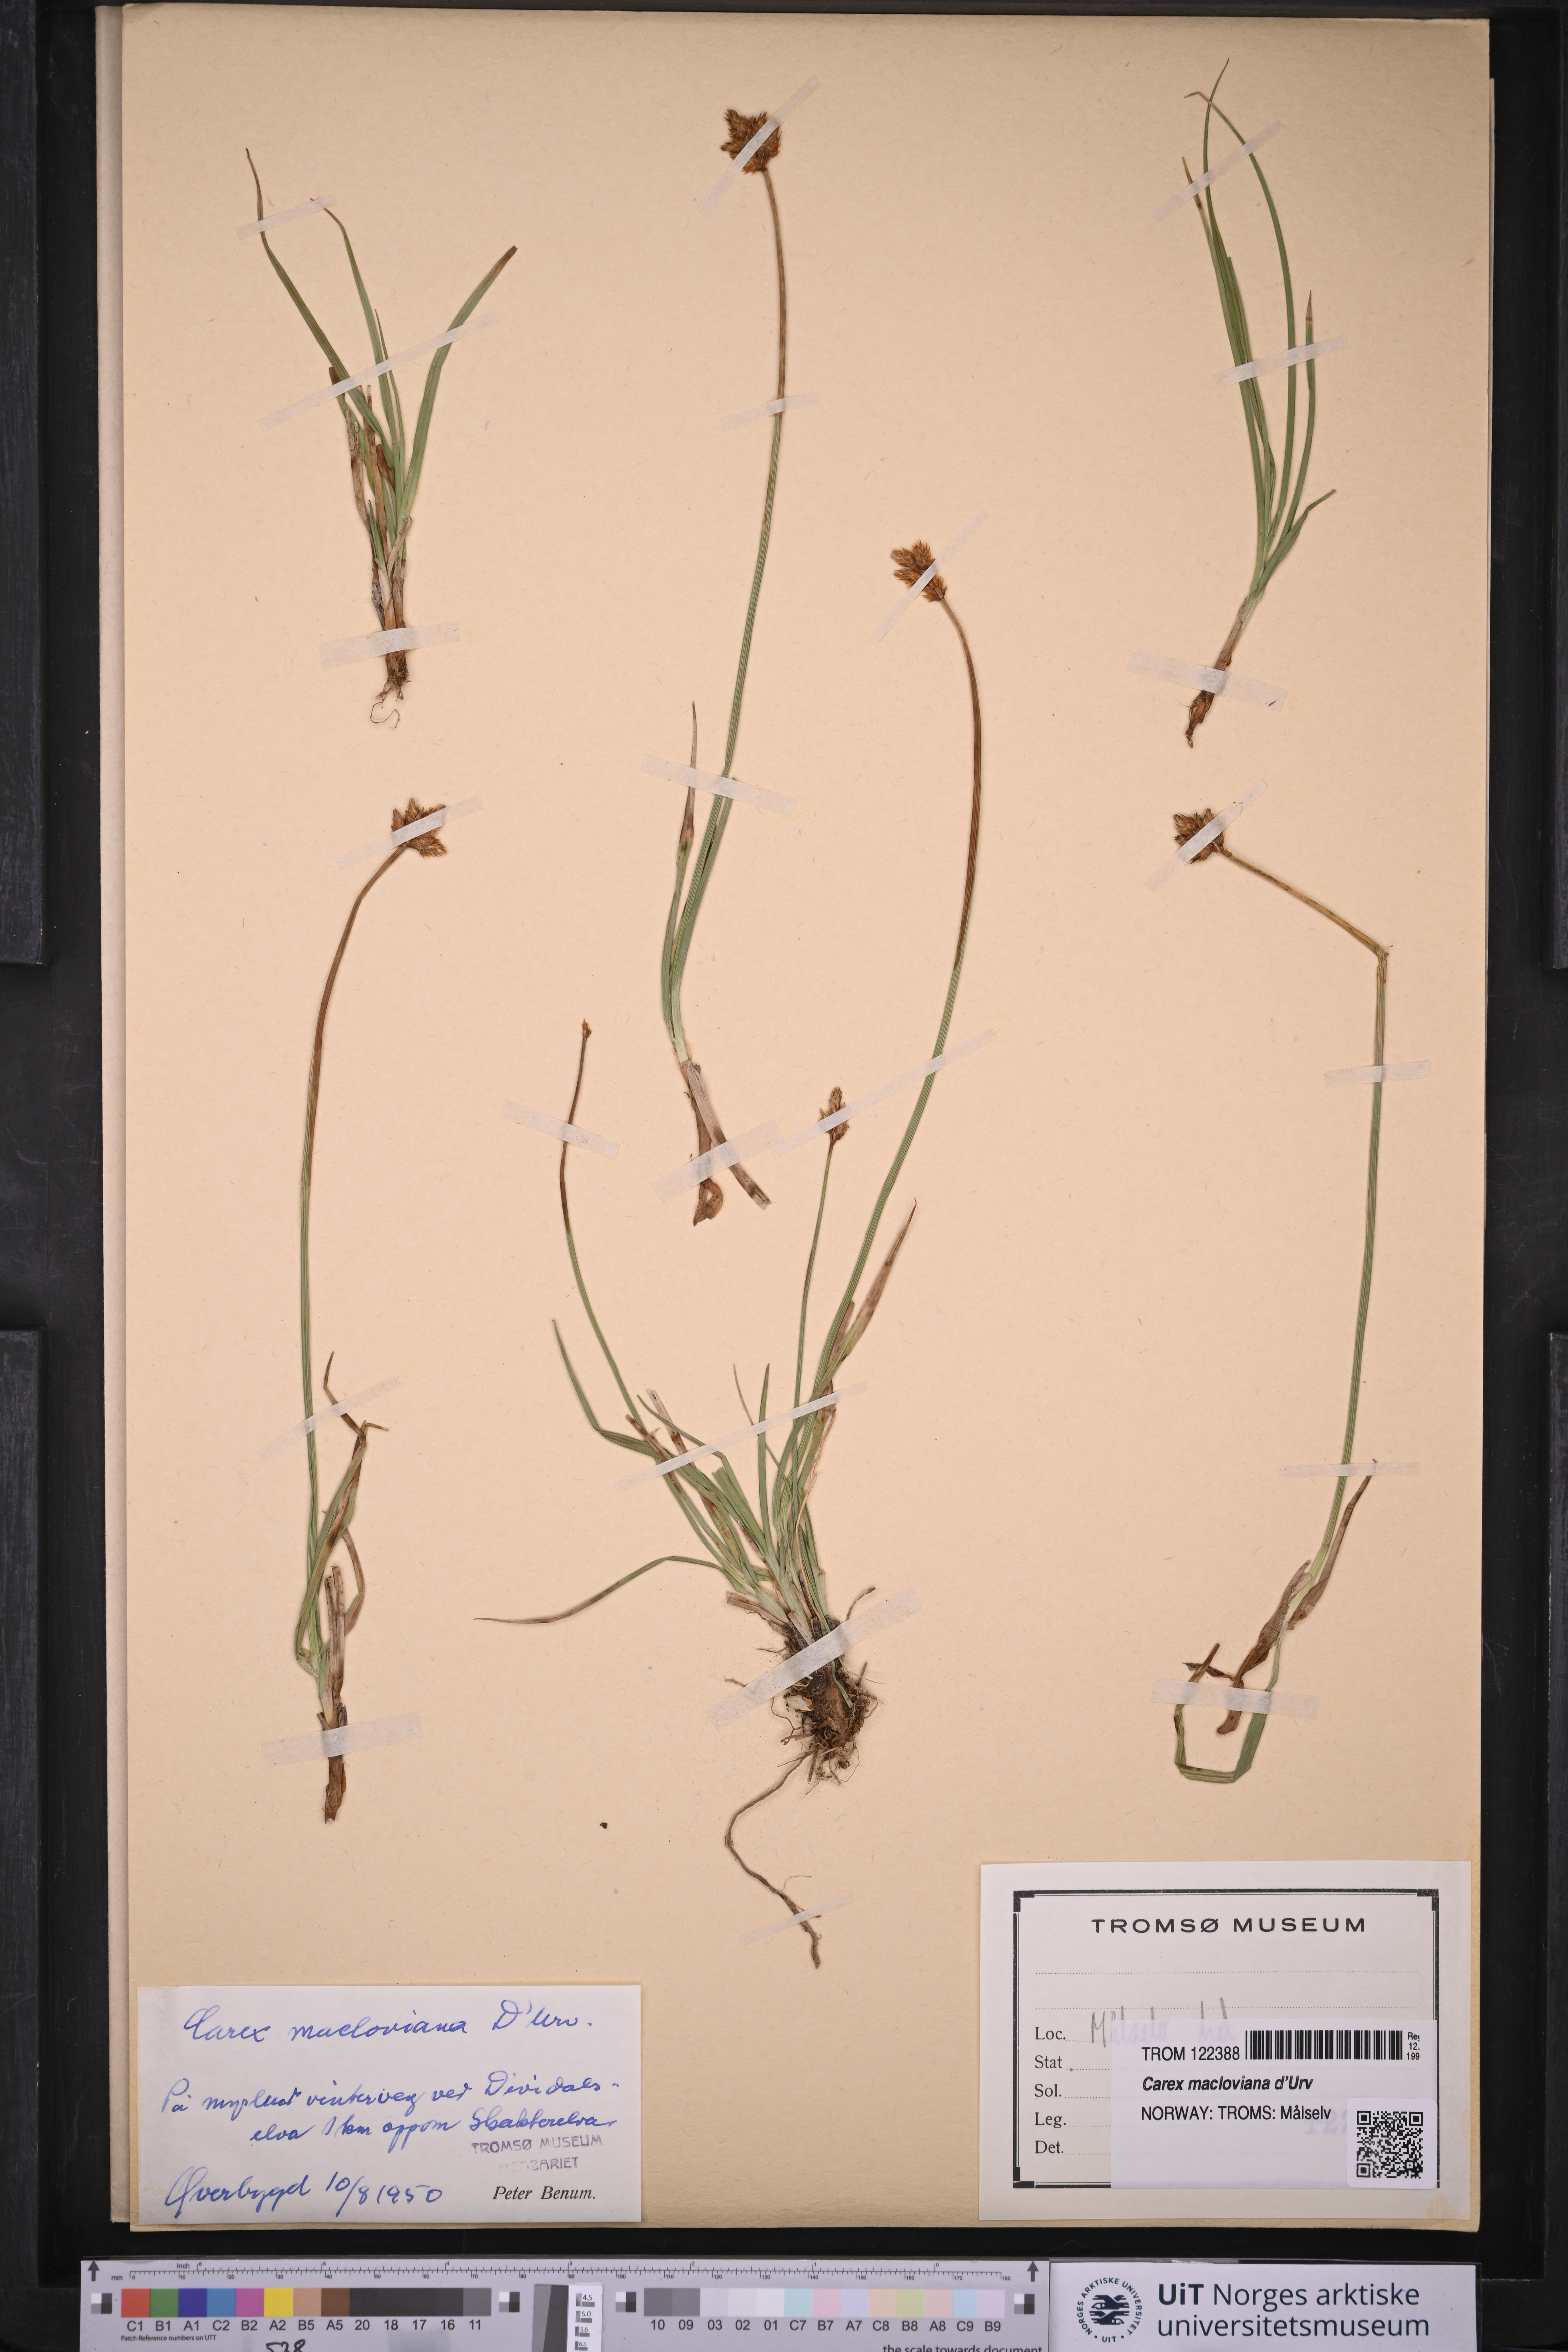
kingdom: Plantae
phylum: Tracheophyta
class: Liliopsida
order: Poales
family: Cyperaceae
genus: Carex
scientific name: Carex macloviana
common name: Falkland island sedge
